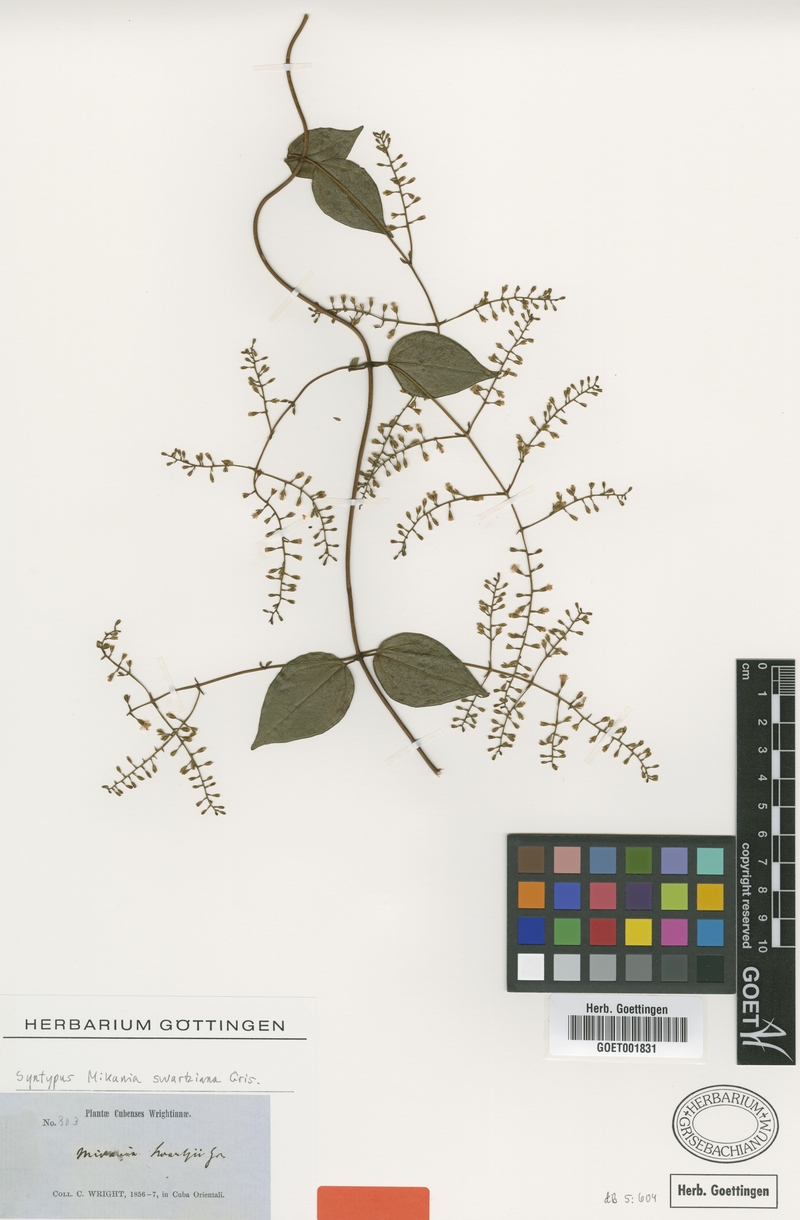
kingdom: Plantae
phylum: Tracheophyta
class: Magnoliopsida
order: Asterales
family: Asteraceae
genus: Mikania
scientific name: Mikania swartziana
